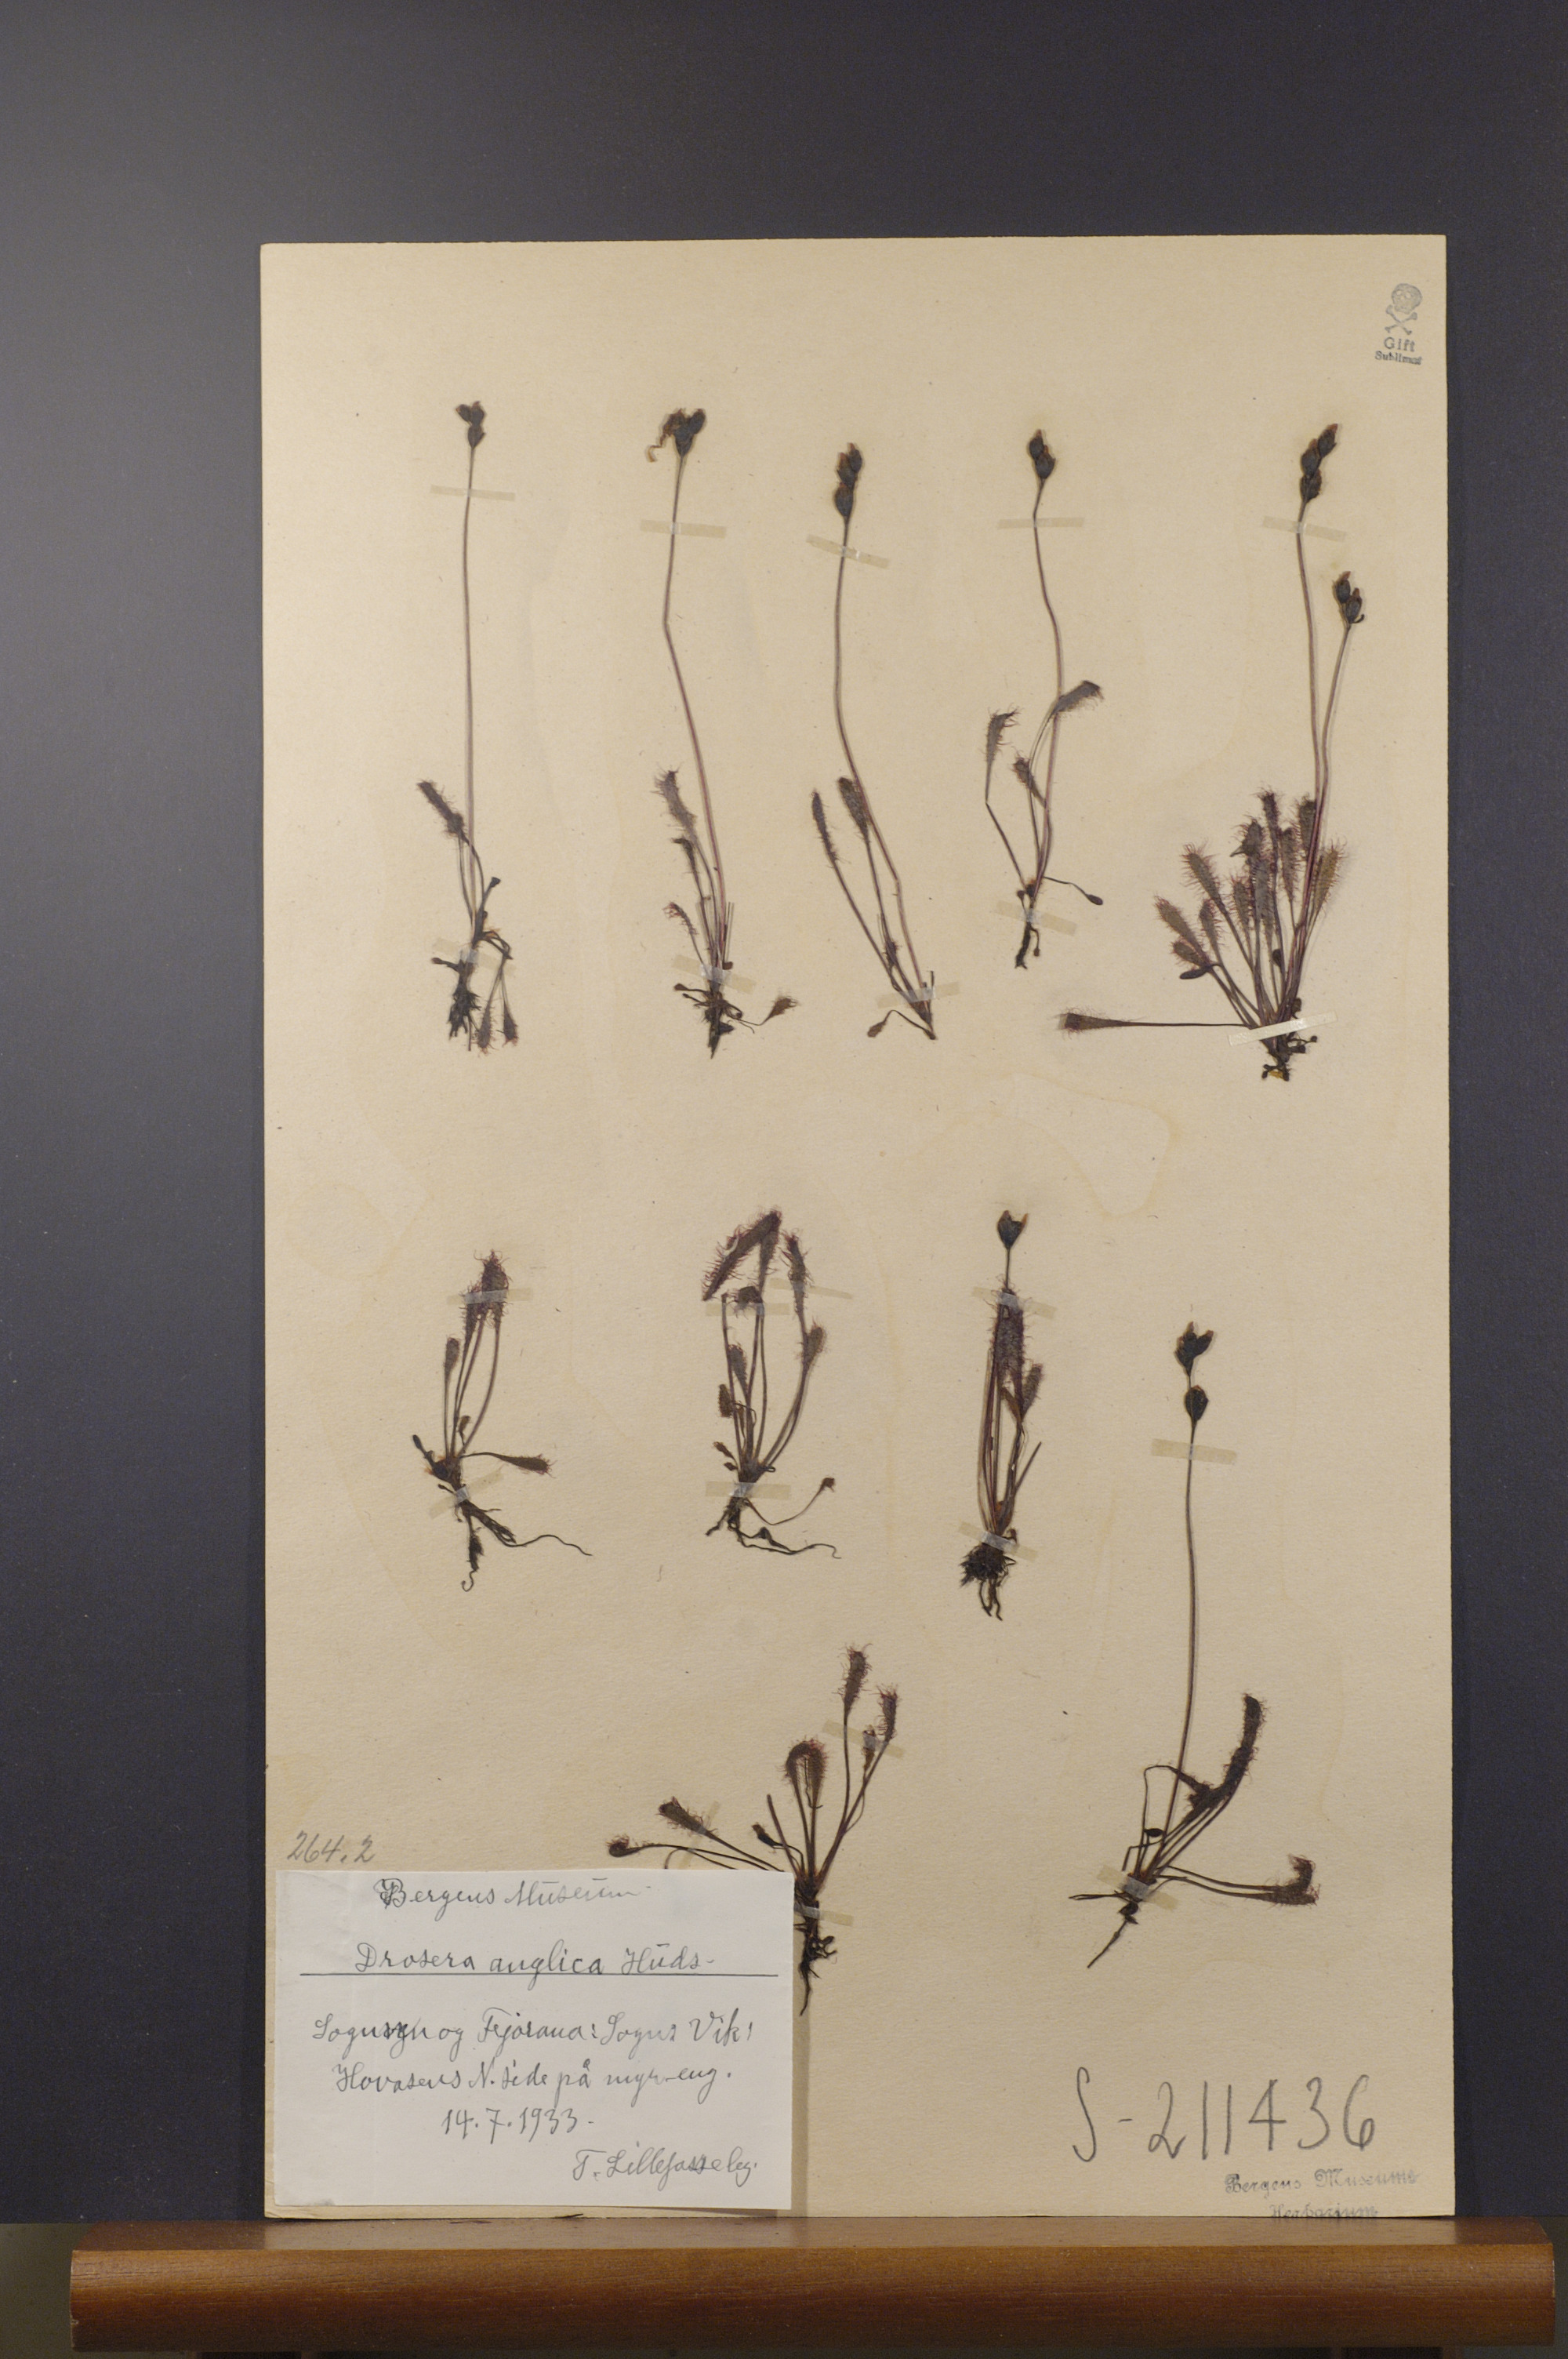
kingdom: Plantae
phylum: Tracheophyta
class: Magnoliopsida
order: Caryophyllales
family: Droseraceae
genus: Drosera
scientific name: Drosera anglica
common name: Great sundew
